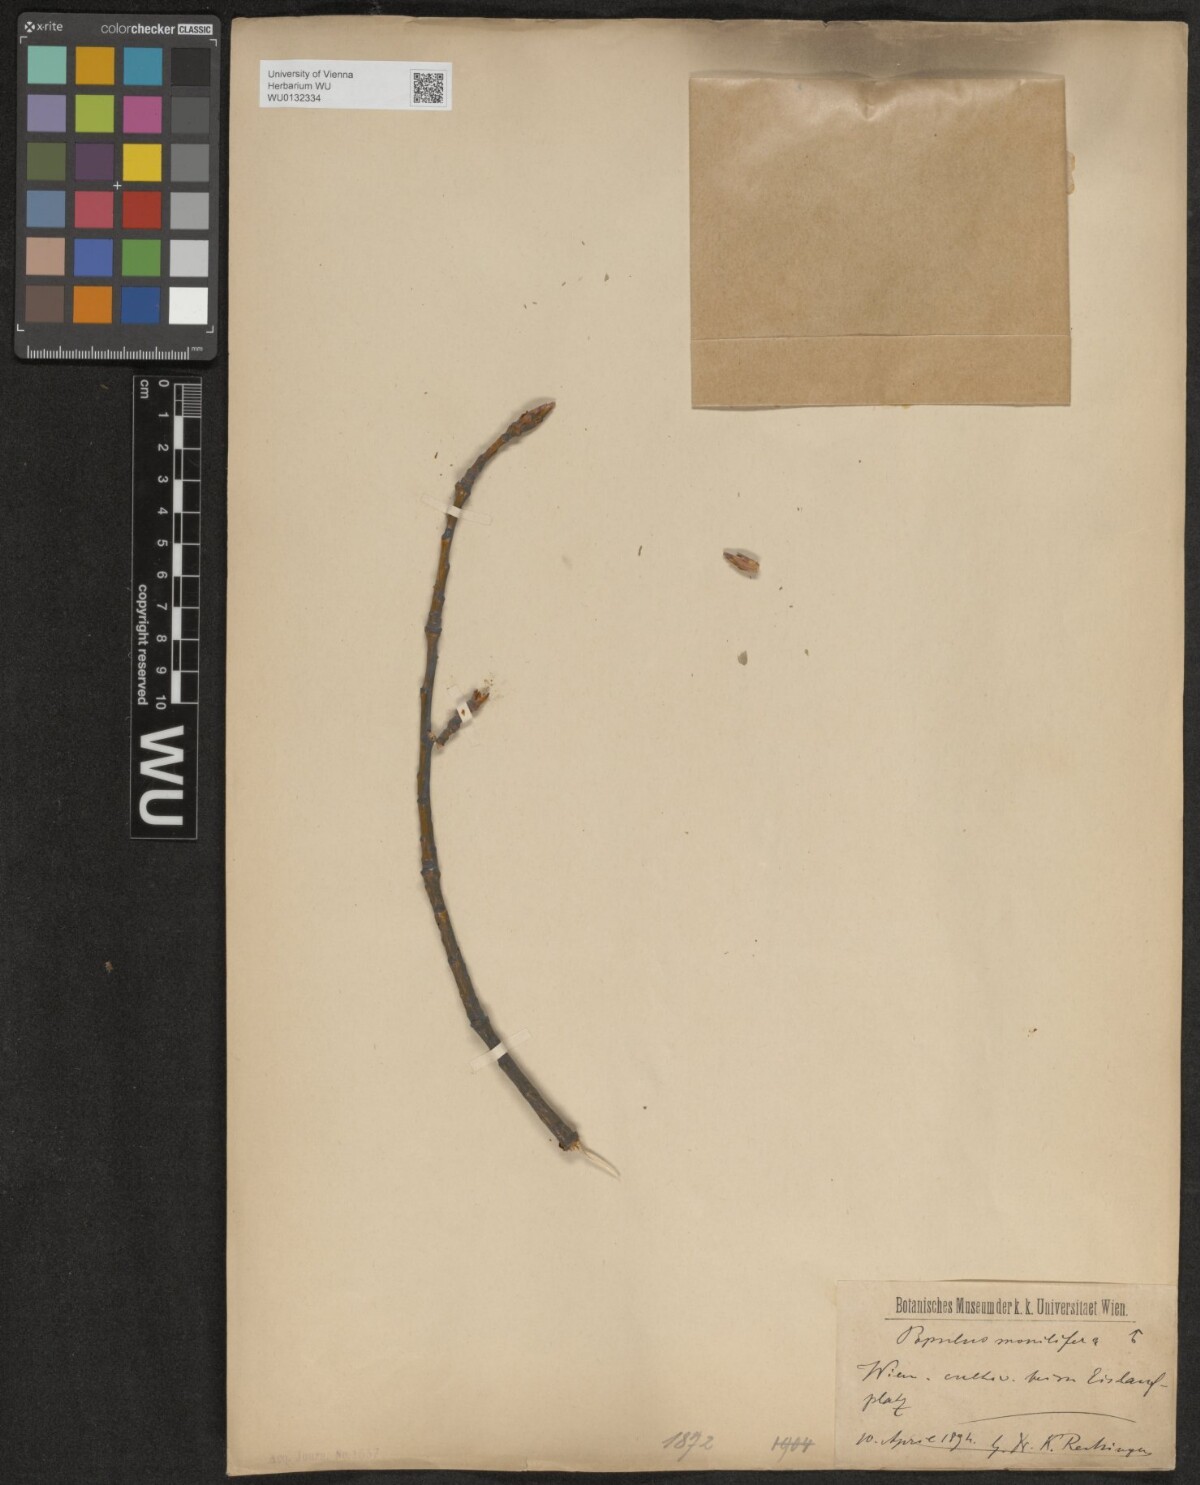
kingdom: Plantae
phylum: Tracheophyta
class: Magnoliopsida
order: Malpighiales
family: Salicaceae
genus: Populus
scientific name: Populus deltoides
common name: Eastern cottonwood
